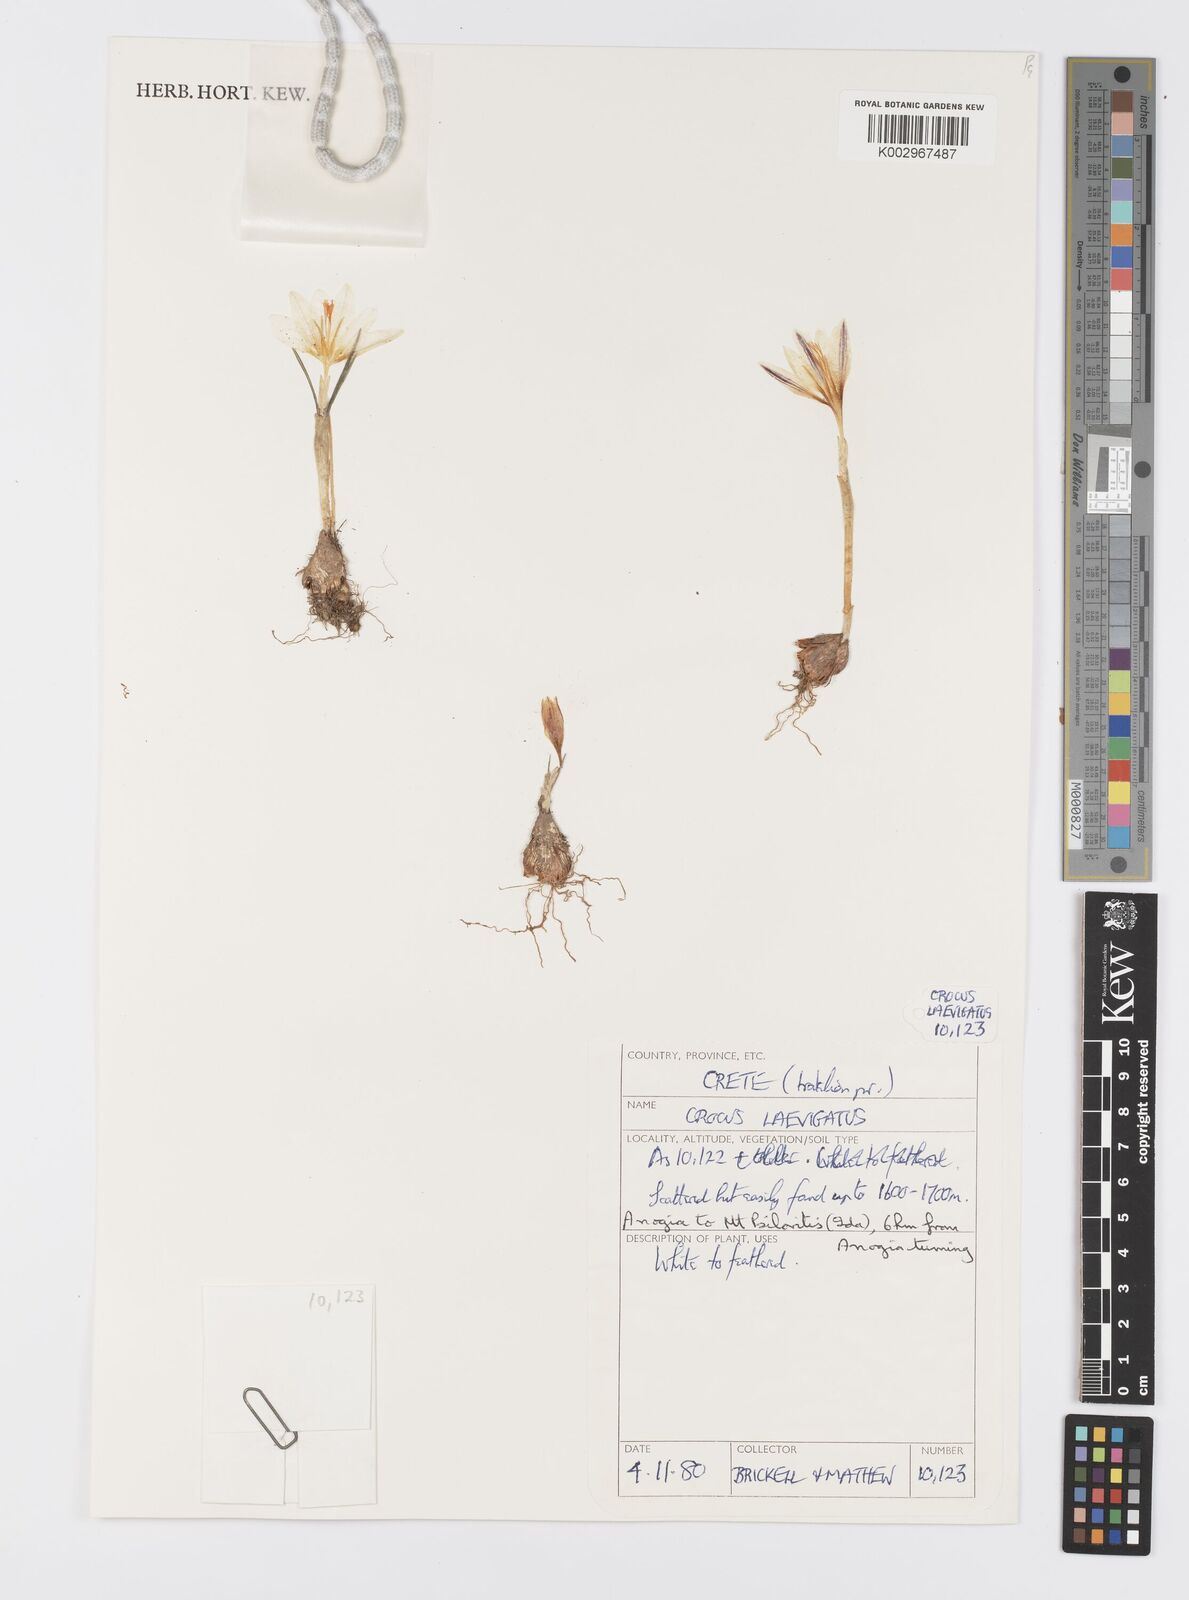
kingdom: Plantae
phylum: Tracheophyta
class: Liliopsida
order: Asparagales
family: Iridaceae
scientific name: Iridaceae
